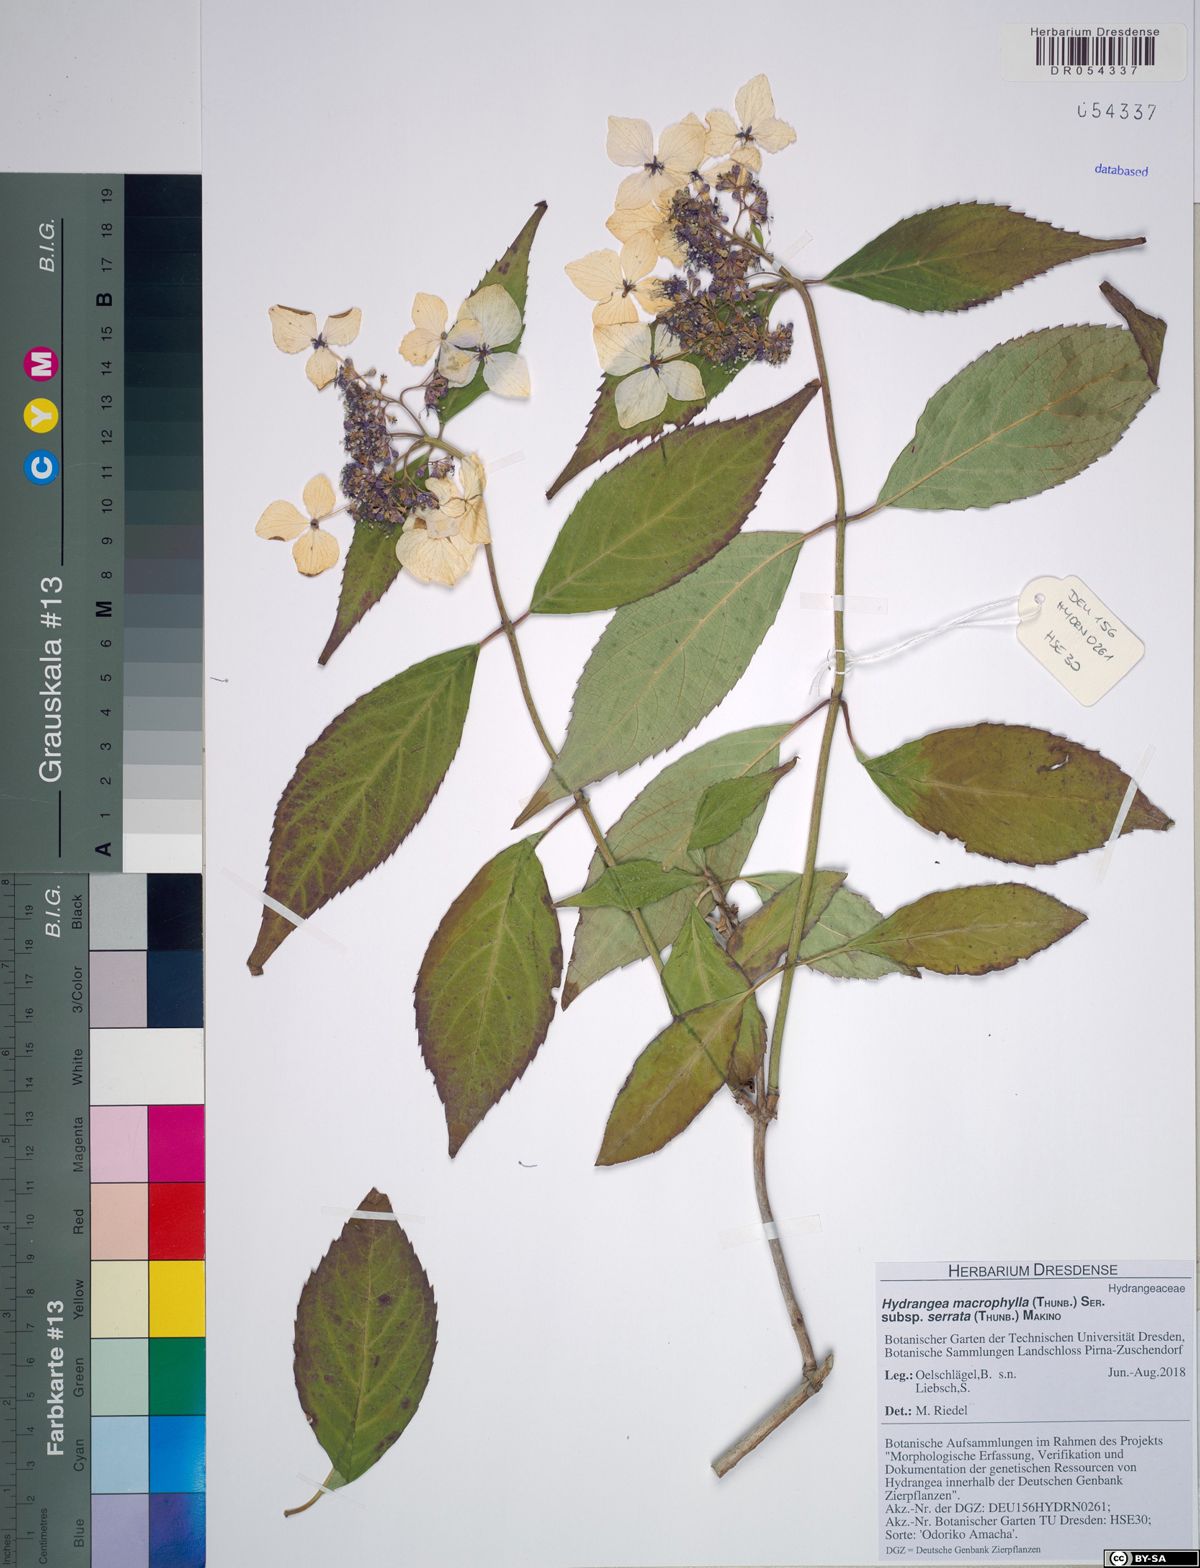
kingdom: Plantae
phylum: Tracheophyta
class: Magnoliopsida
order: Cornales
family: Hydrangeaceae
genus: Hydrangea
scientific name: Hydrangea serrata
